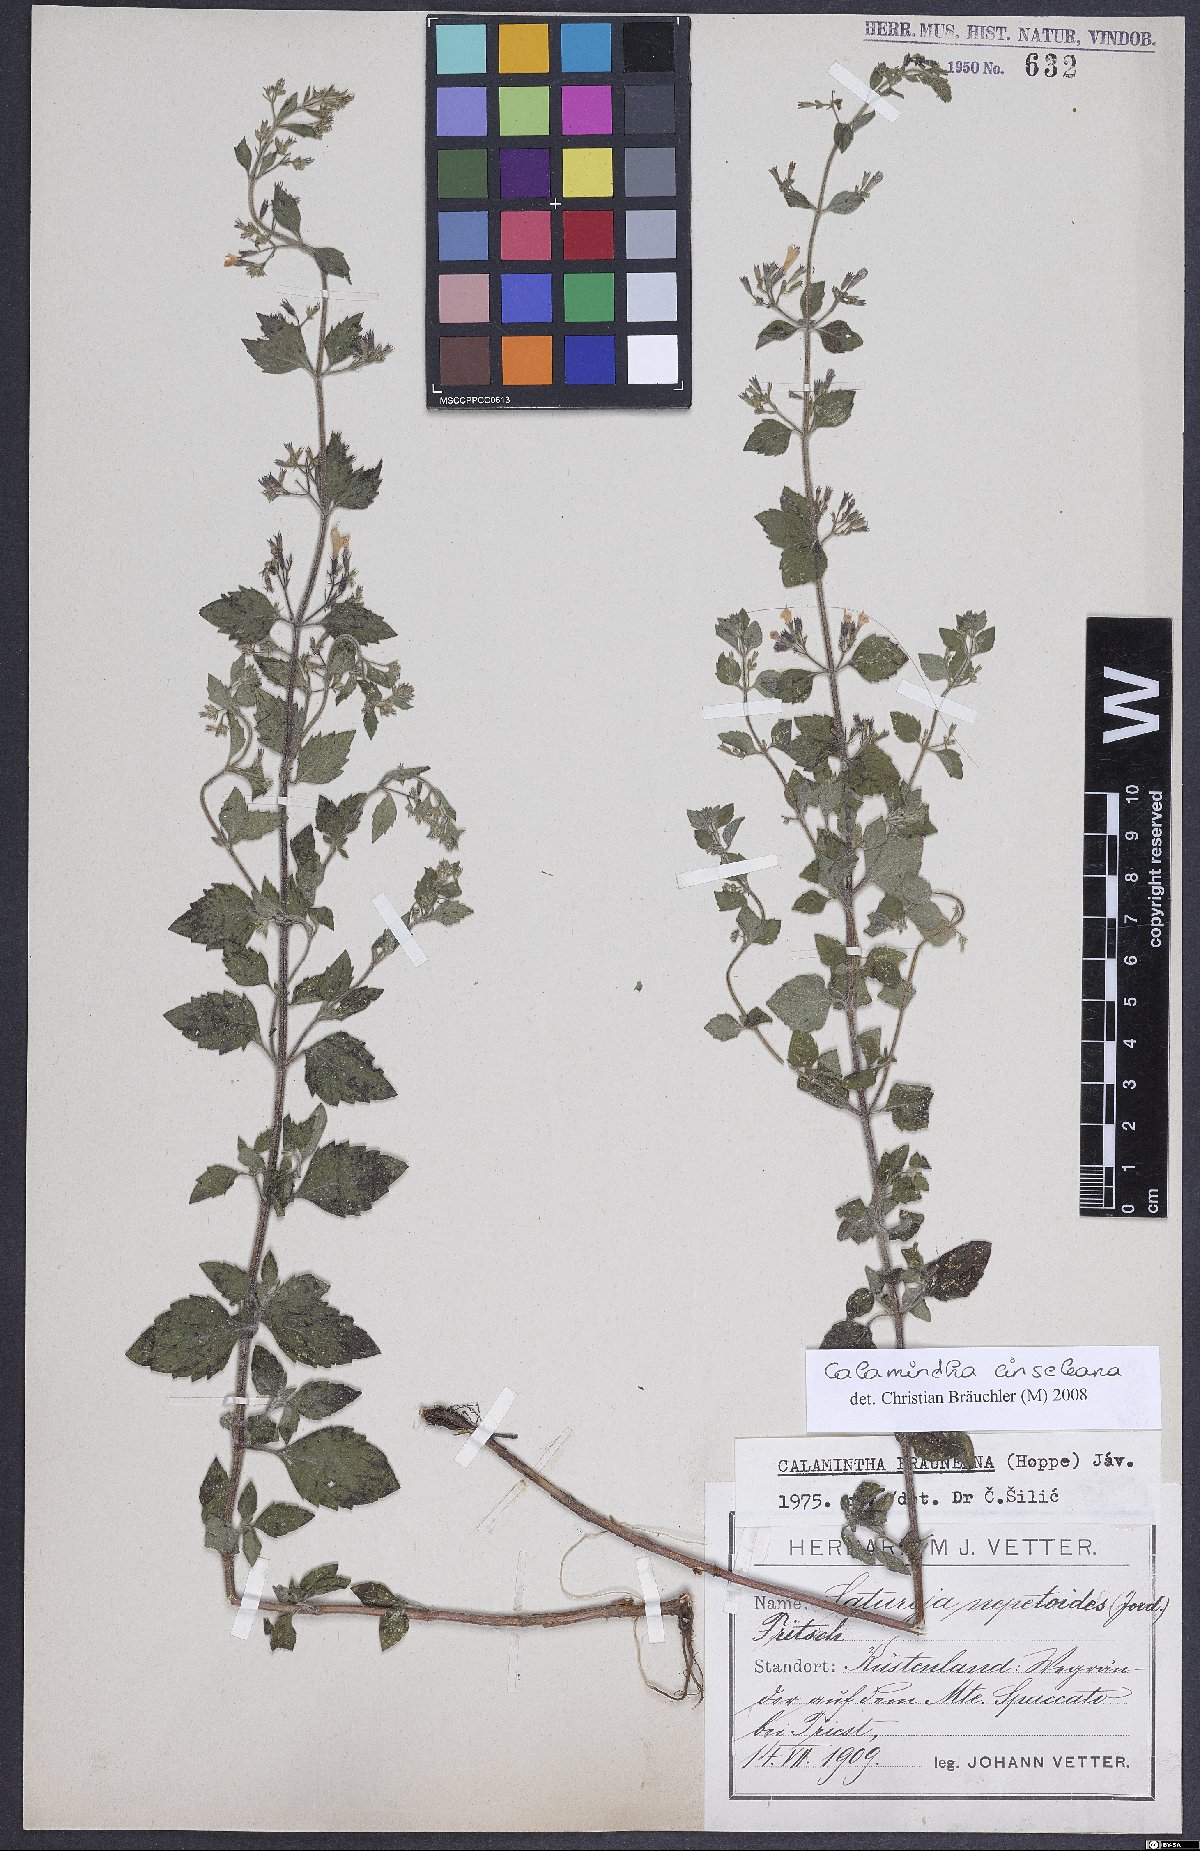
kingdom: Plantae
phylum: Tracheophyta
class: Magnoliopsida
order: Lamiales
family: Lamiaceae
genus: Clinopodium
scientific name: Clinopodium nepeta
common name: Lesser calamint
